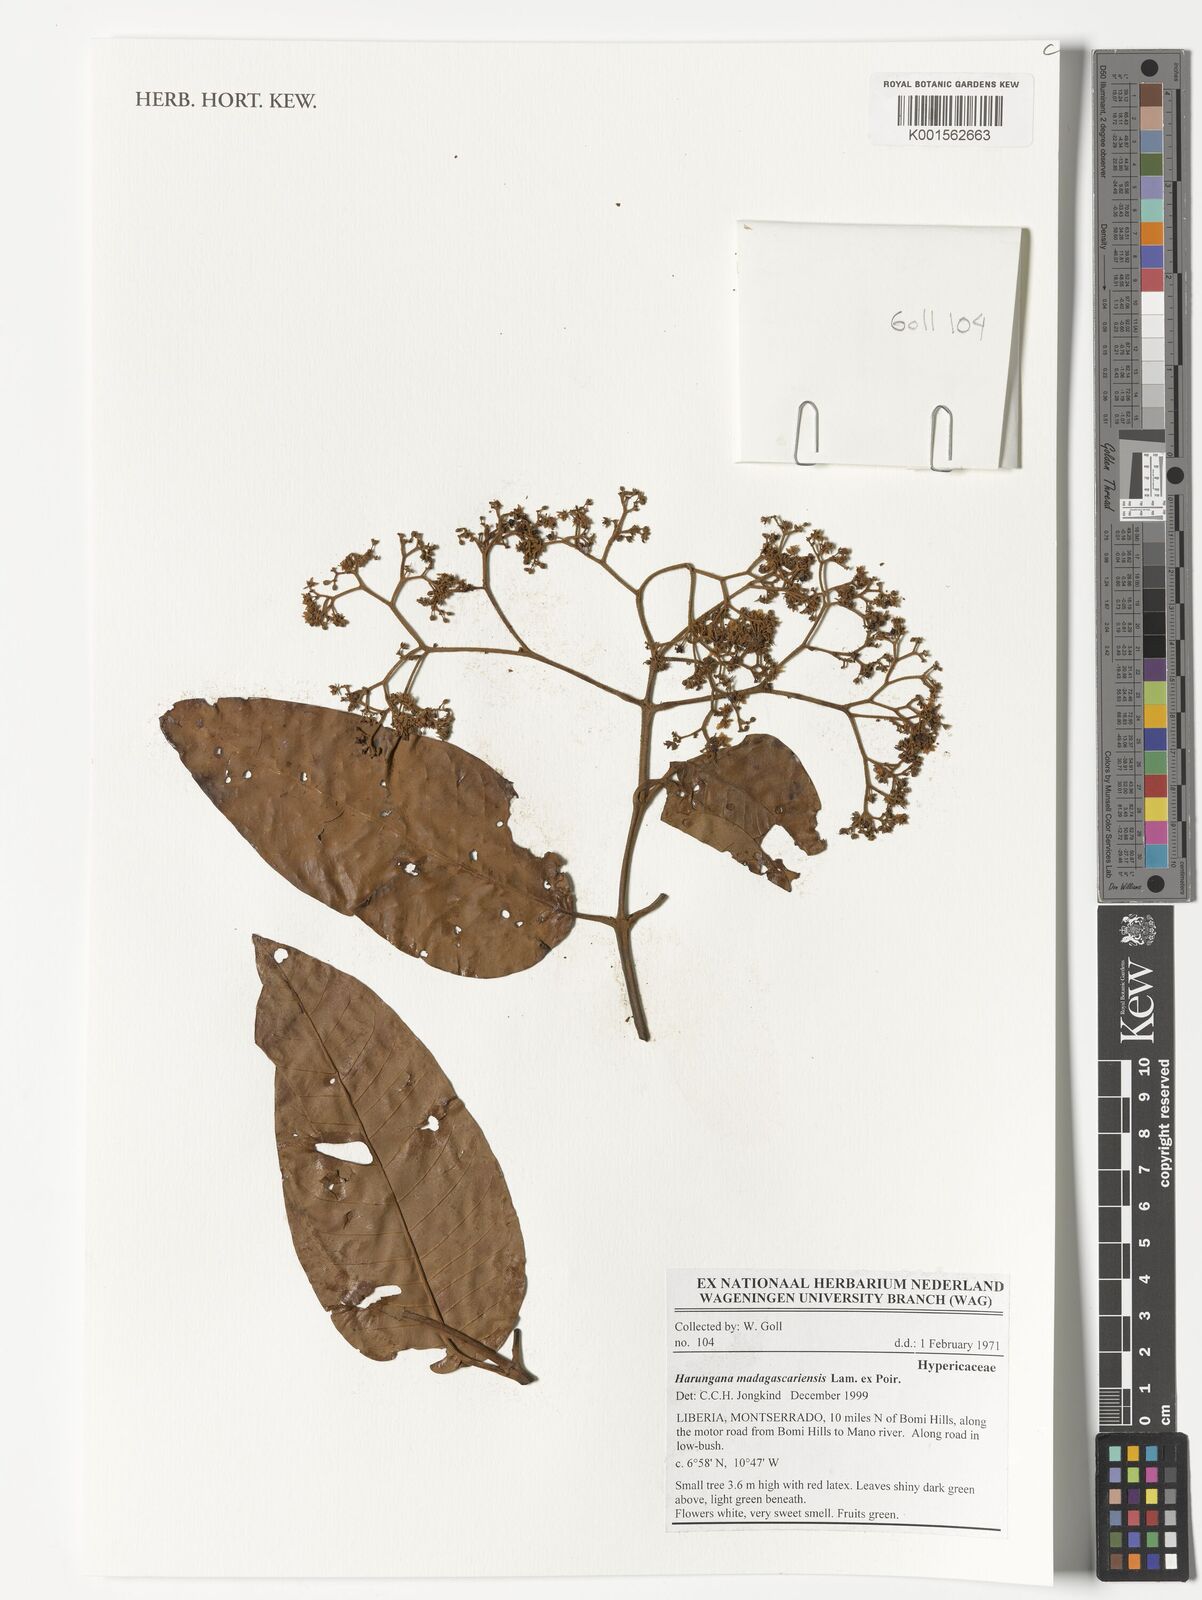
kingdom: Plantae
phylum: Tracheophyta
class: Magnoliopsida
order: Malpighiales
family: Hypericaceae
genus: Harungana
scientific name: Harungana madagascariensis
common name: Orange milktree
